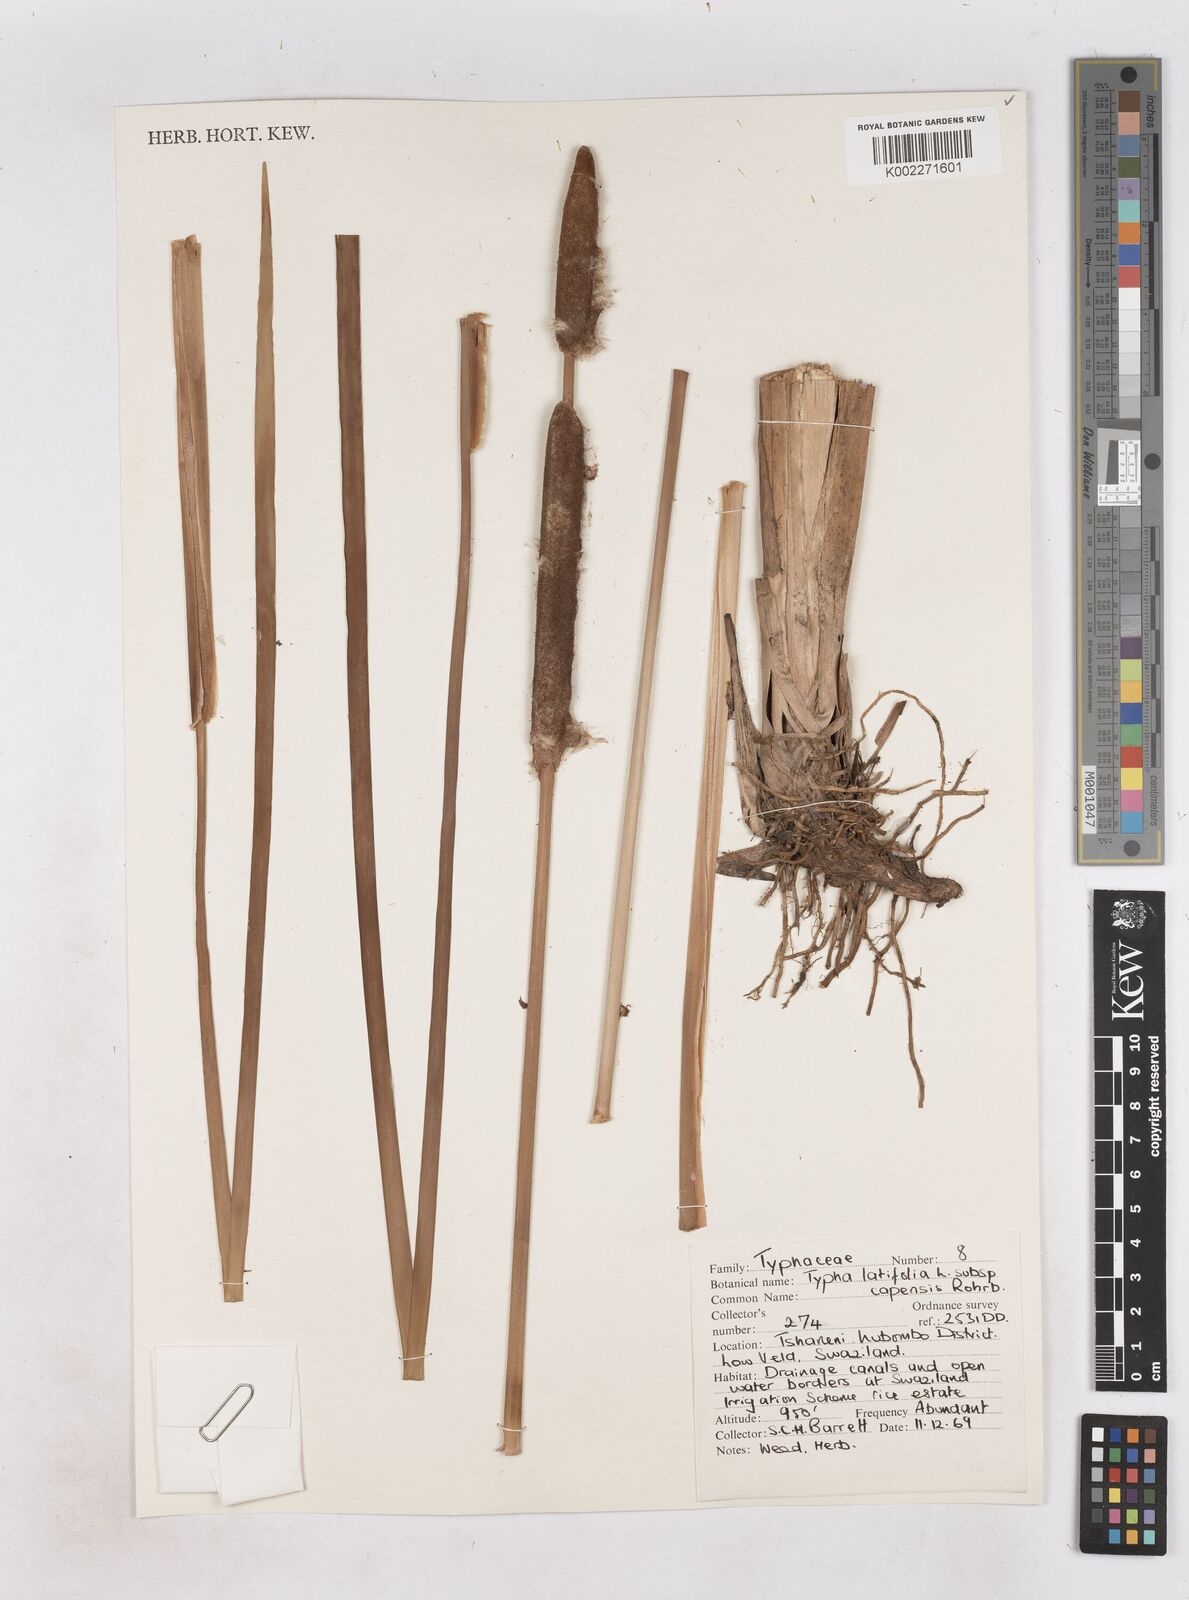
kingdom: Plantae
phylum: Tracheophyta
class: Liliopsida
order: Poales
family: Typhaceae
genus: Typha
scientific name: Typha capensis
